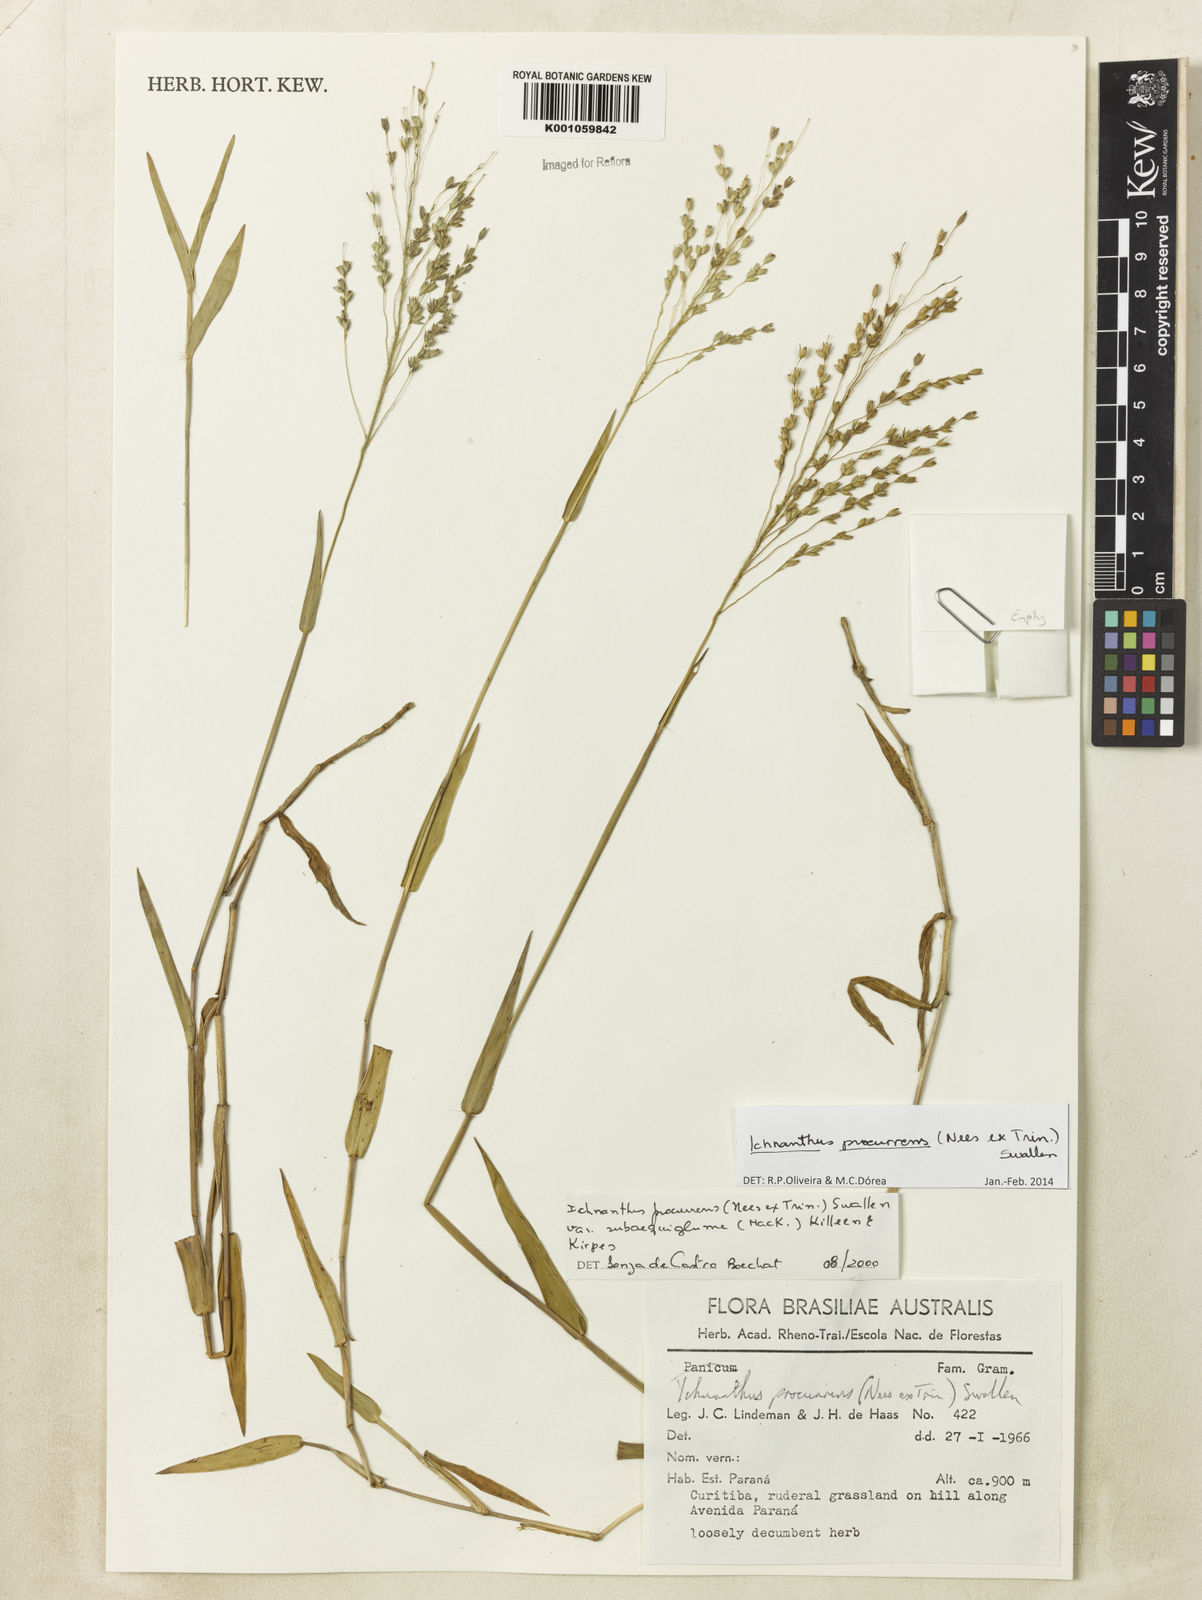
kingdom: Plantae
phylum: Tracheophyta
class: Liliopsida
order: Poales
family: Poaceae
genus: Oedochloa
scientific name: Oedochloa procurrens
